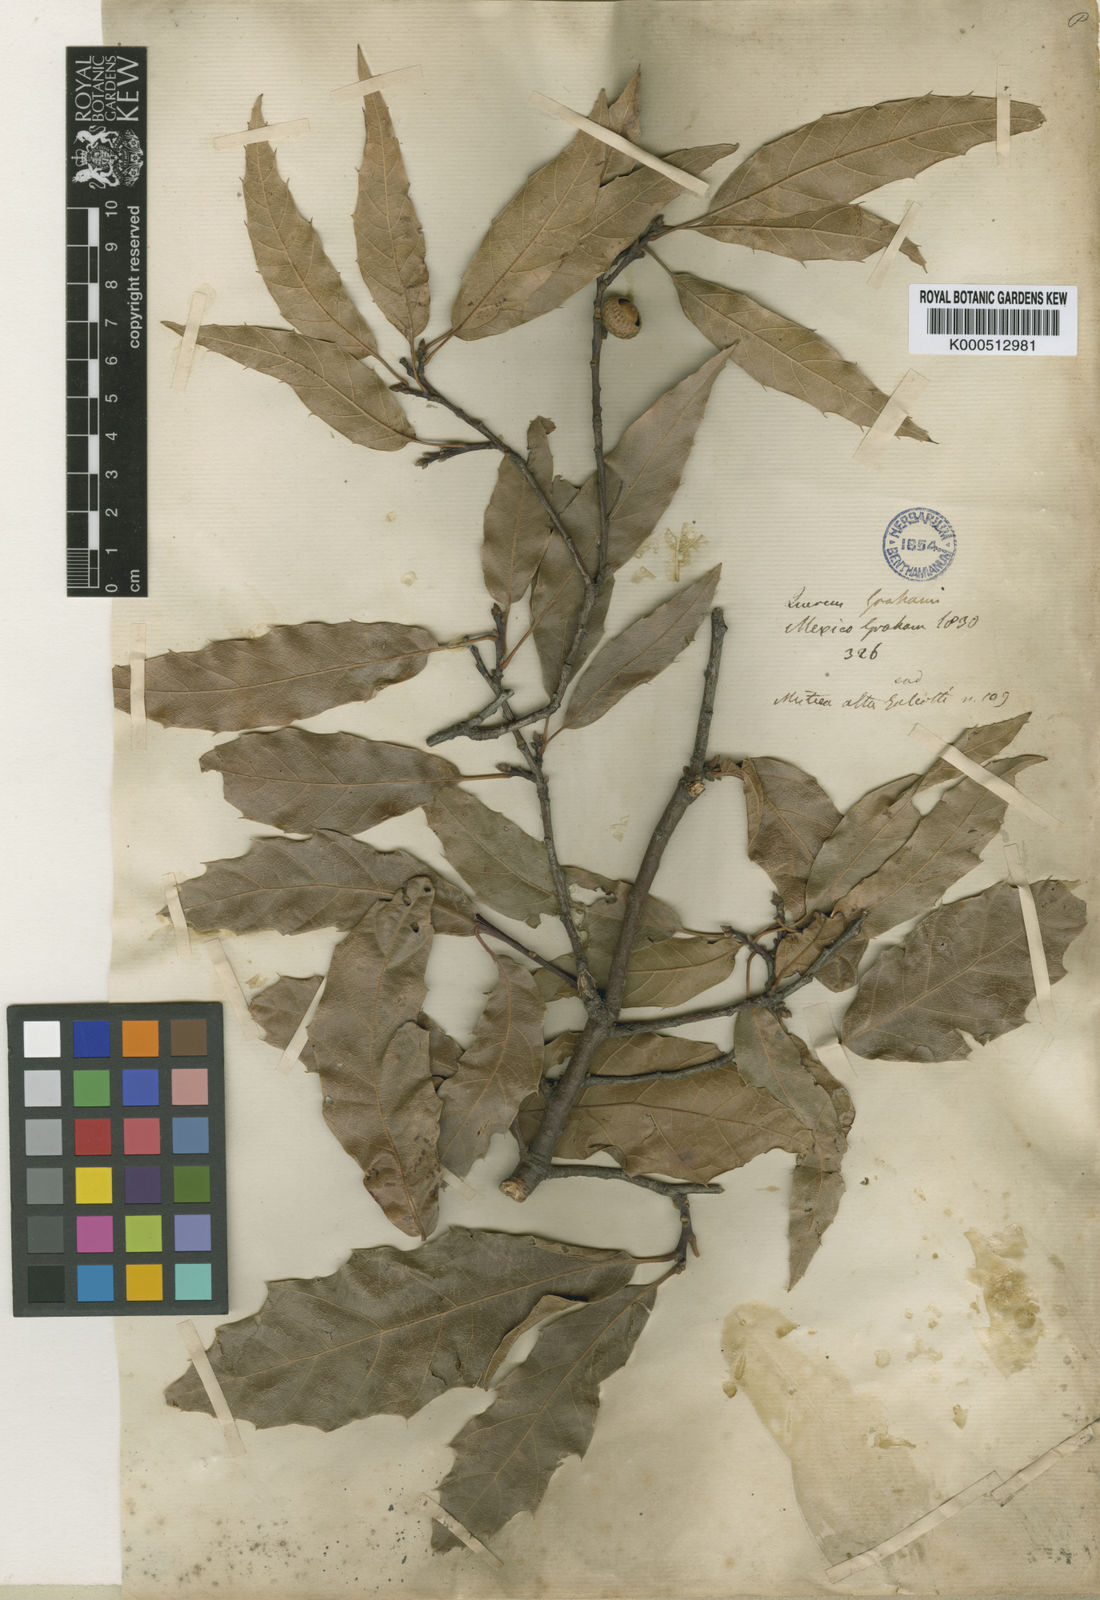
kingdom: Plantae
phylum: Tracheophyta
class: Magnoliopsida
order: Fagales
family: Fagaceae
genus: Quercus
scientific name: Quercus grahamii
